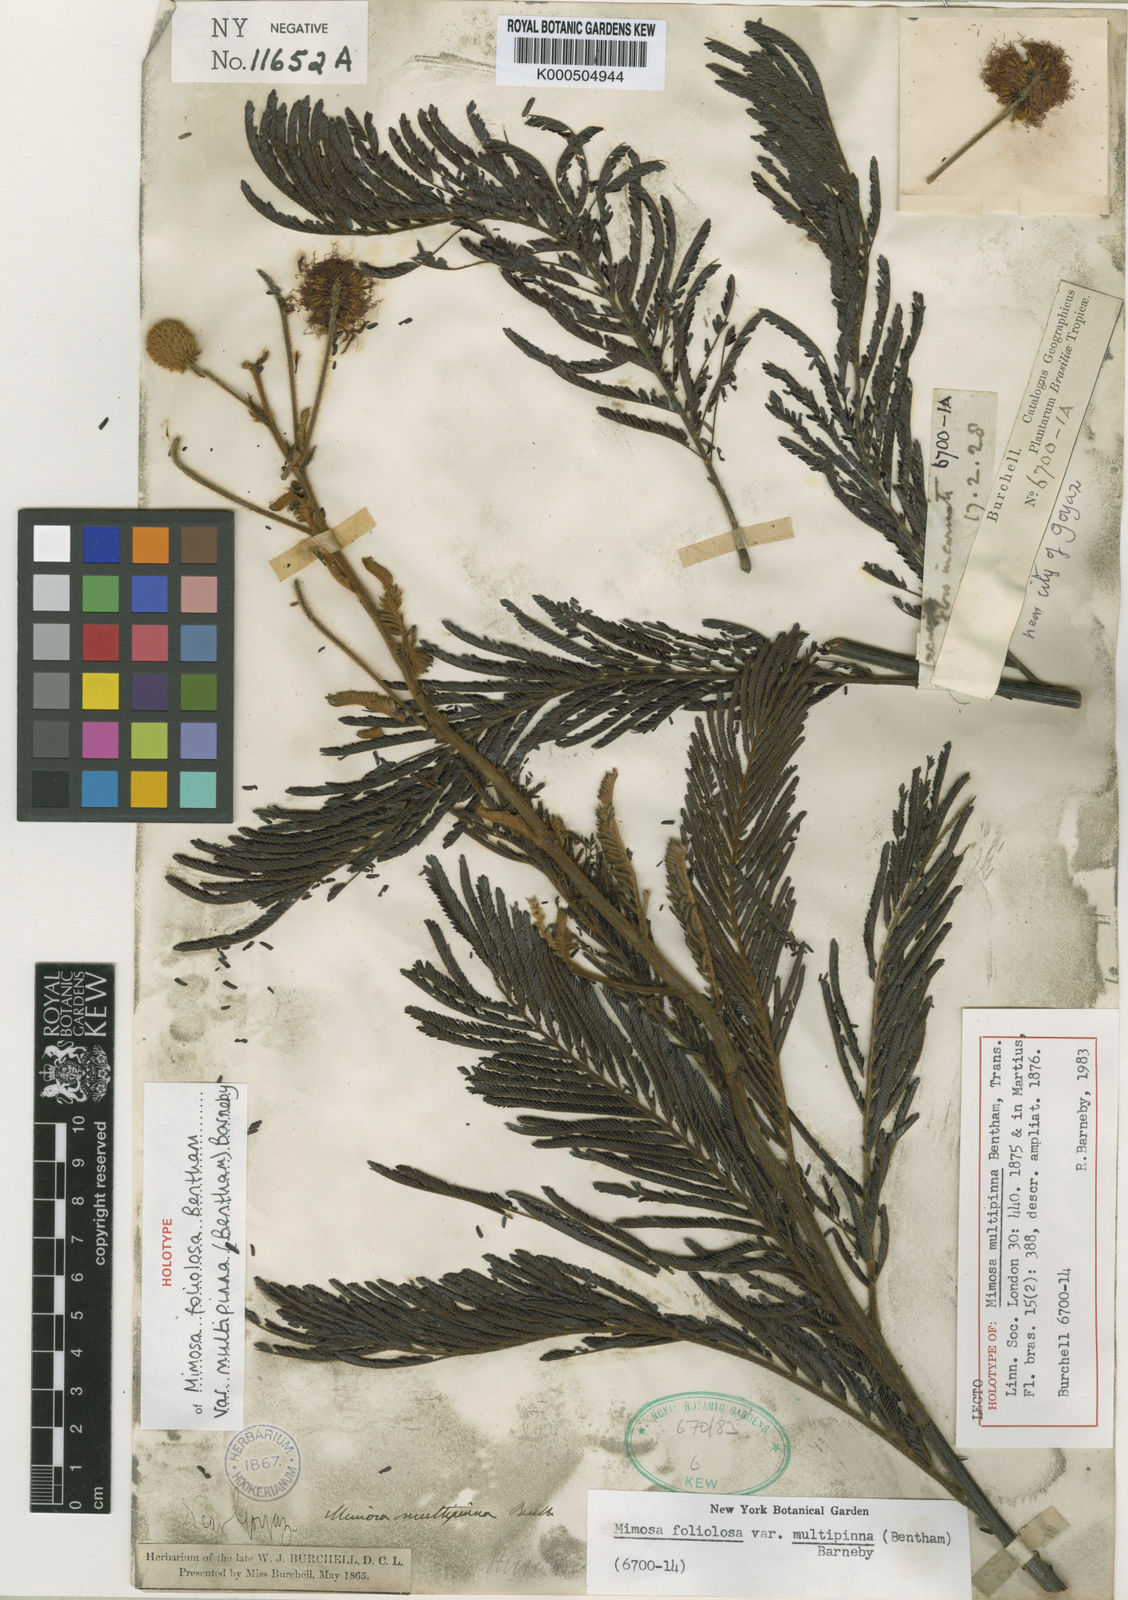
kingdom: Plantae
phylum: Tracheophyta
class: Magnoliopsida
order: Fabales
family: Fabaceae
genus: Mimosa
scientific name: Mimosa foliolosa
